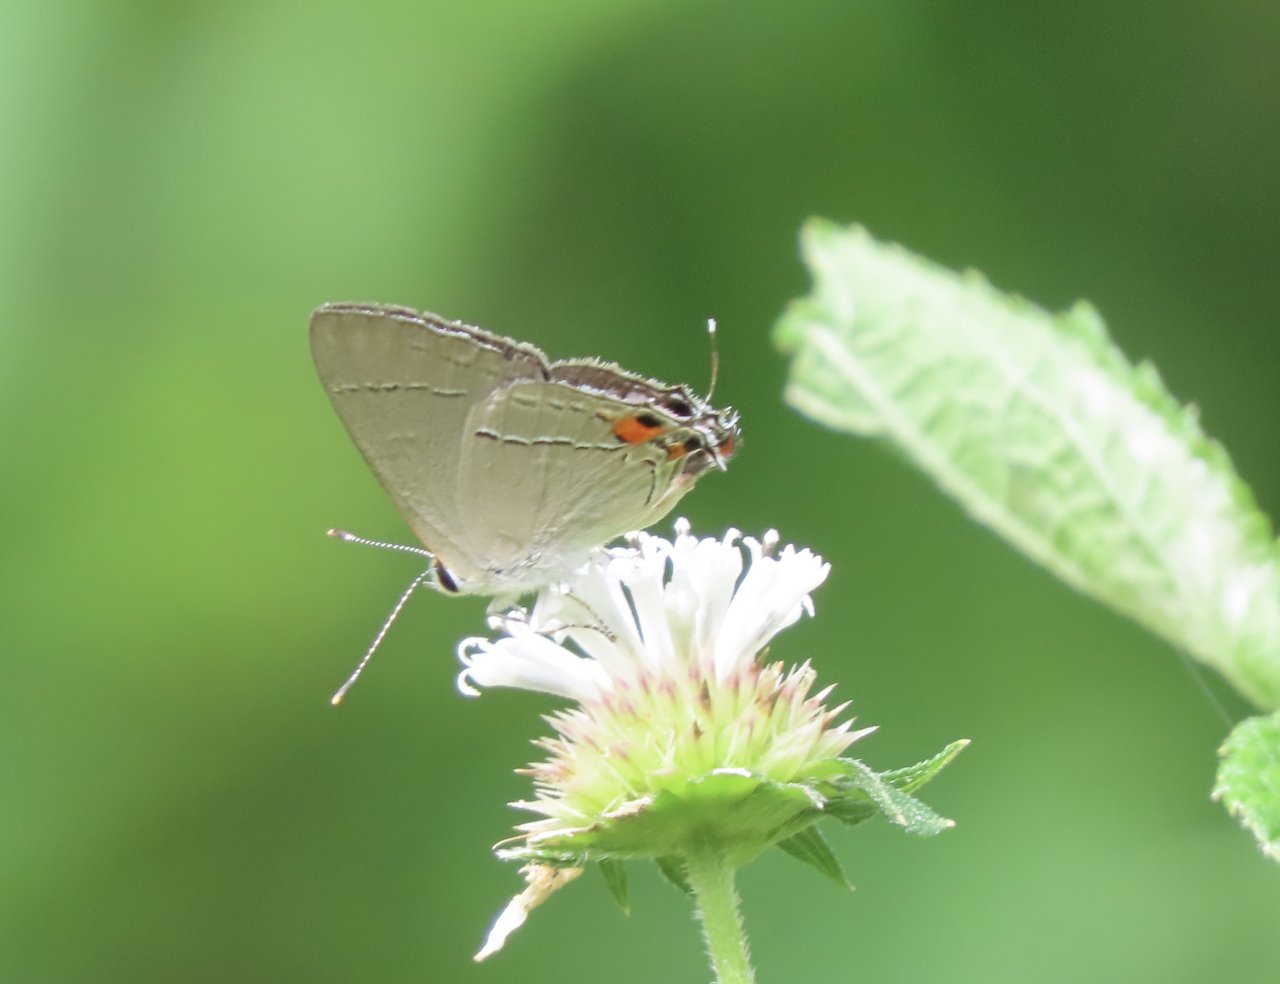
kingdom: Animalia
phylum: Arthropoda
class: Insecta
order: Lepidoptera
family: Lycaenidae
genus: Strymon
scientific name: Strymon melinus
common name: Gray Hairstreak
